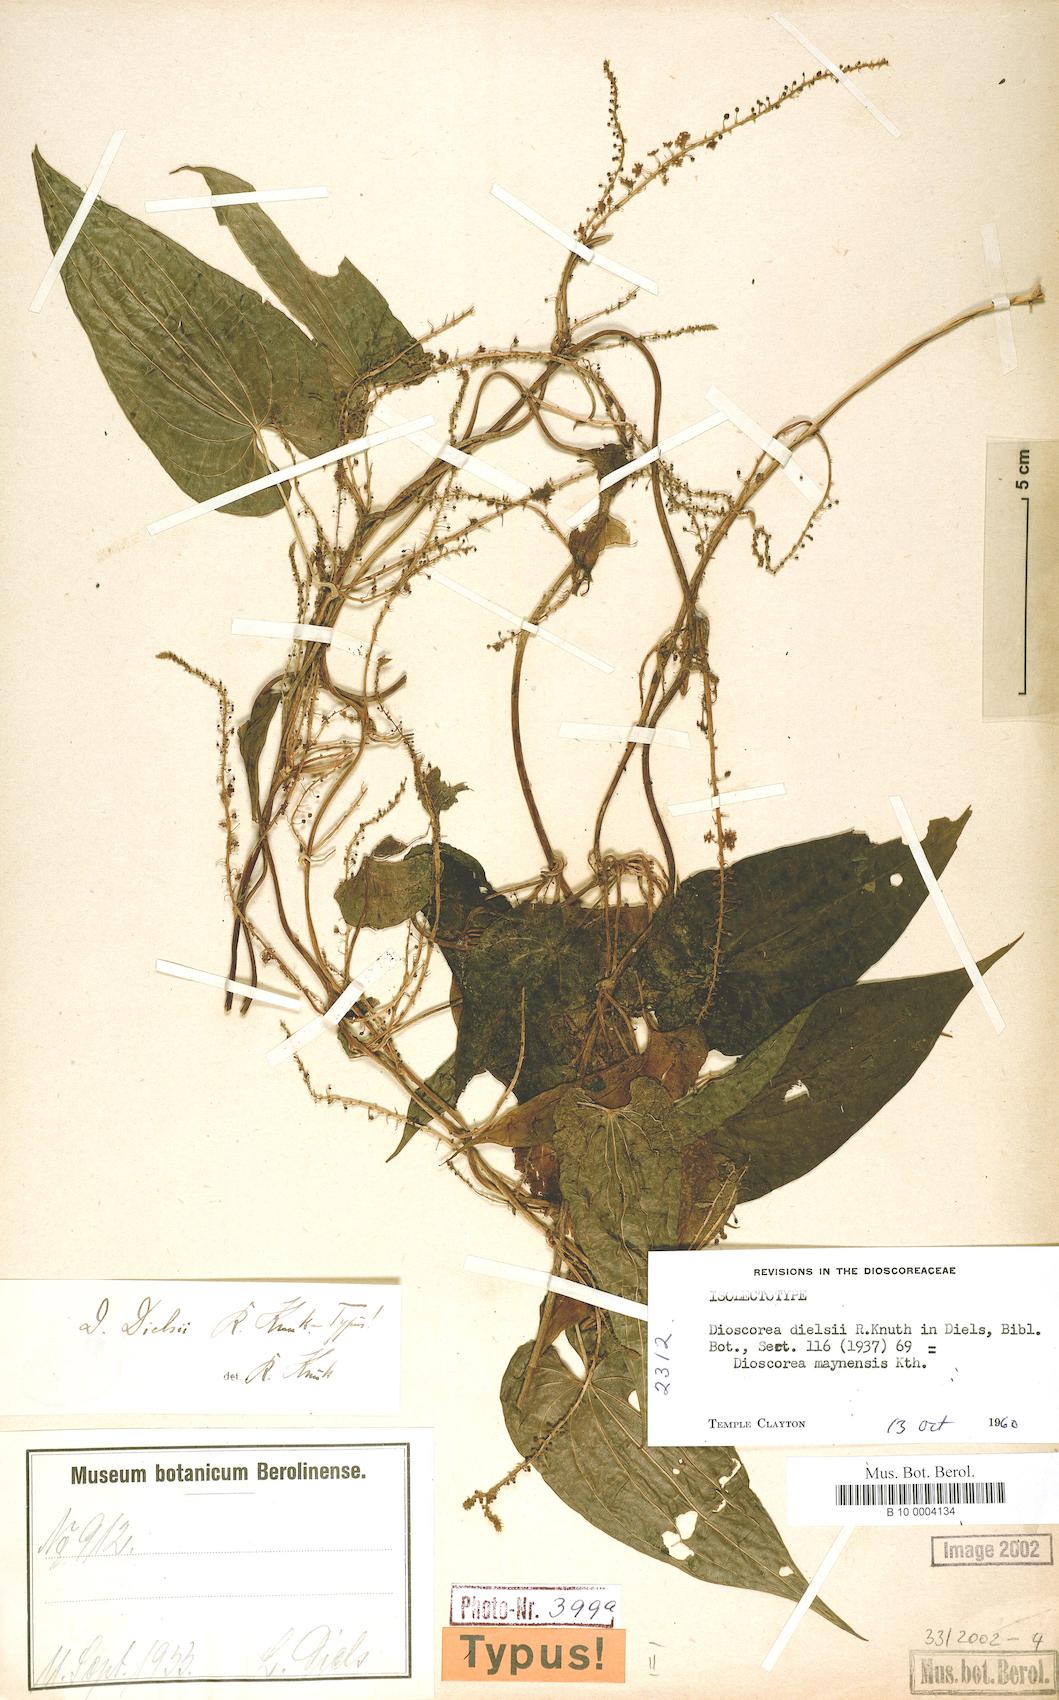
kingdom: Plantae
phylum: Tracheophyta
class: Liliopsida
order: Dioscoreales
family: Dioscoreaceae
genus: Dioscorea
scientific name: Dioscorea dielsii
